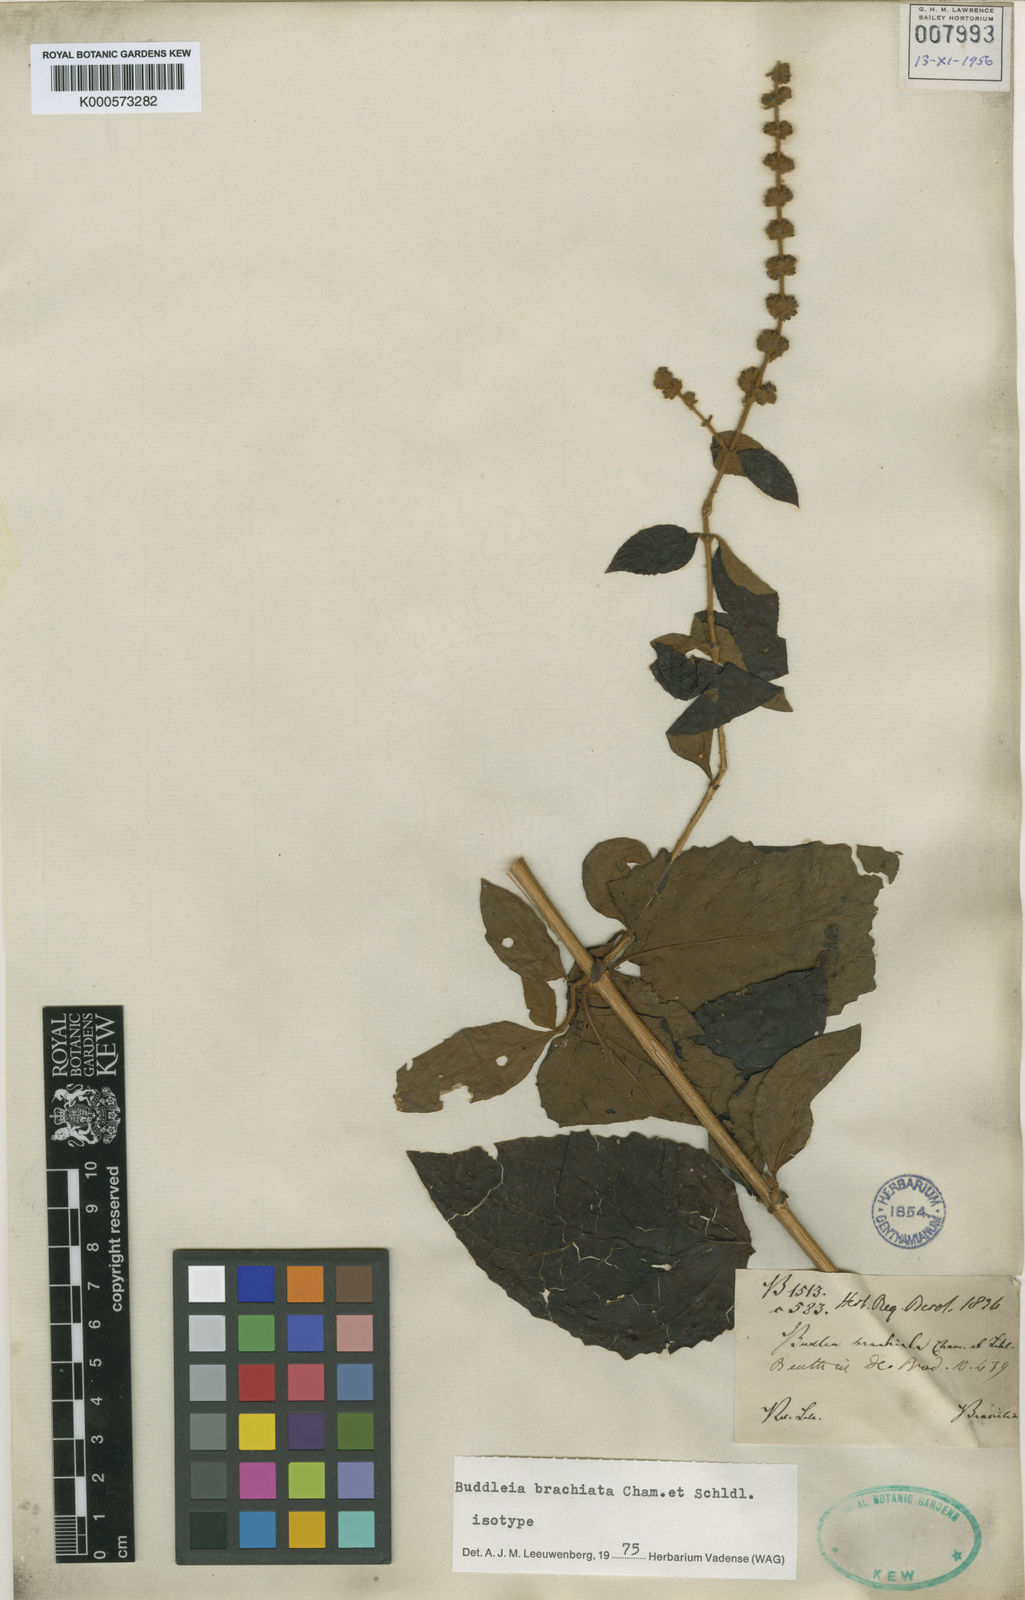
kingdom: Plantae
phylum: Tracheophyta
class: Magnoliopsida
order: Lamiales
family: Scrophulariaceae
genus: Buddleja
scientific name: Buddleja brachiata
